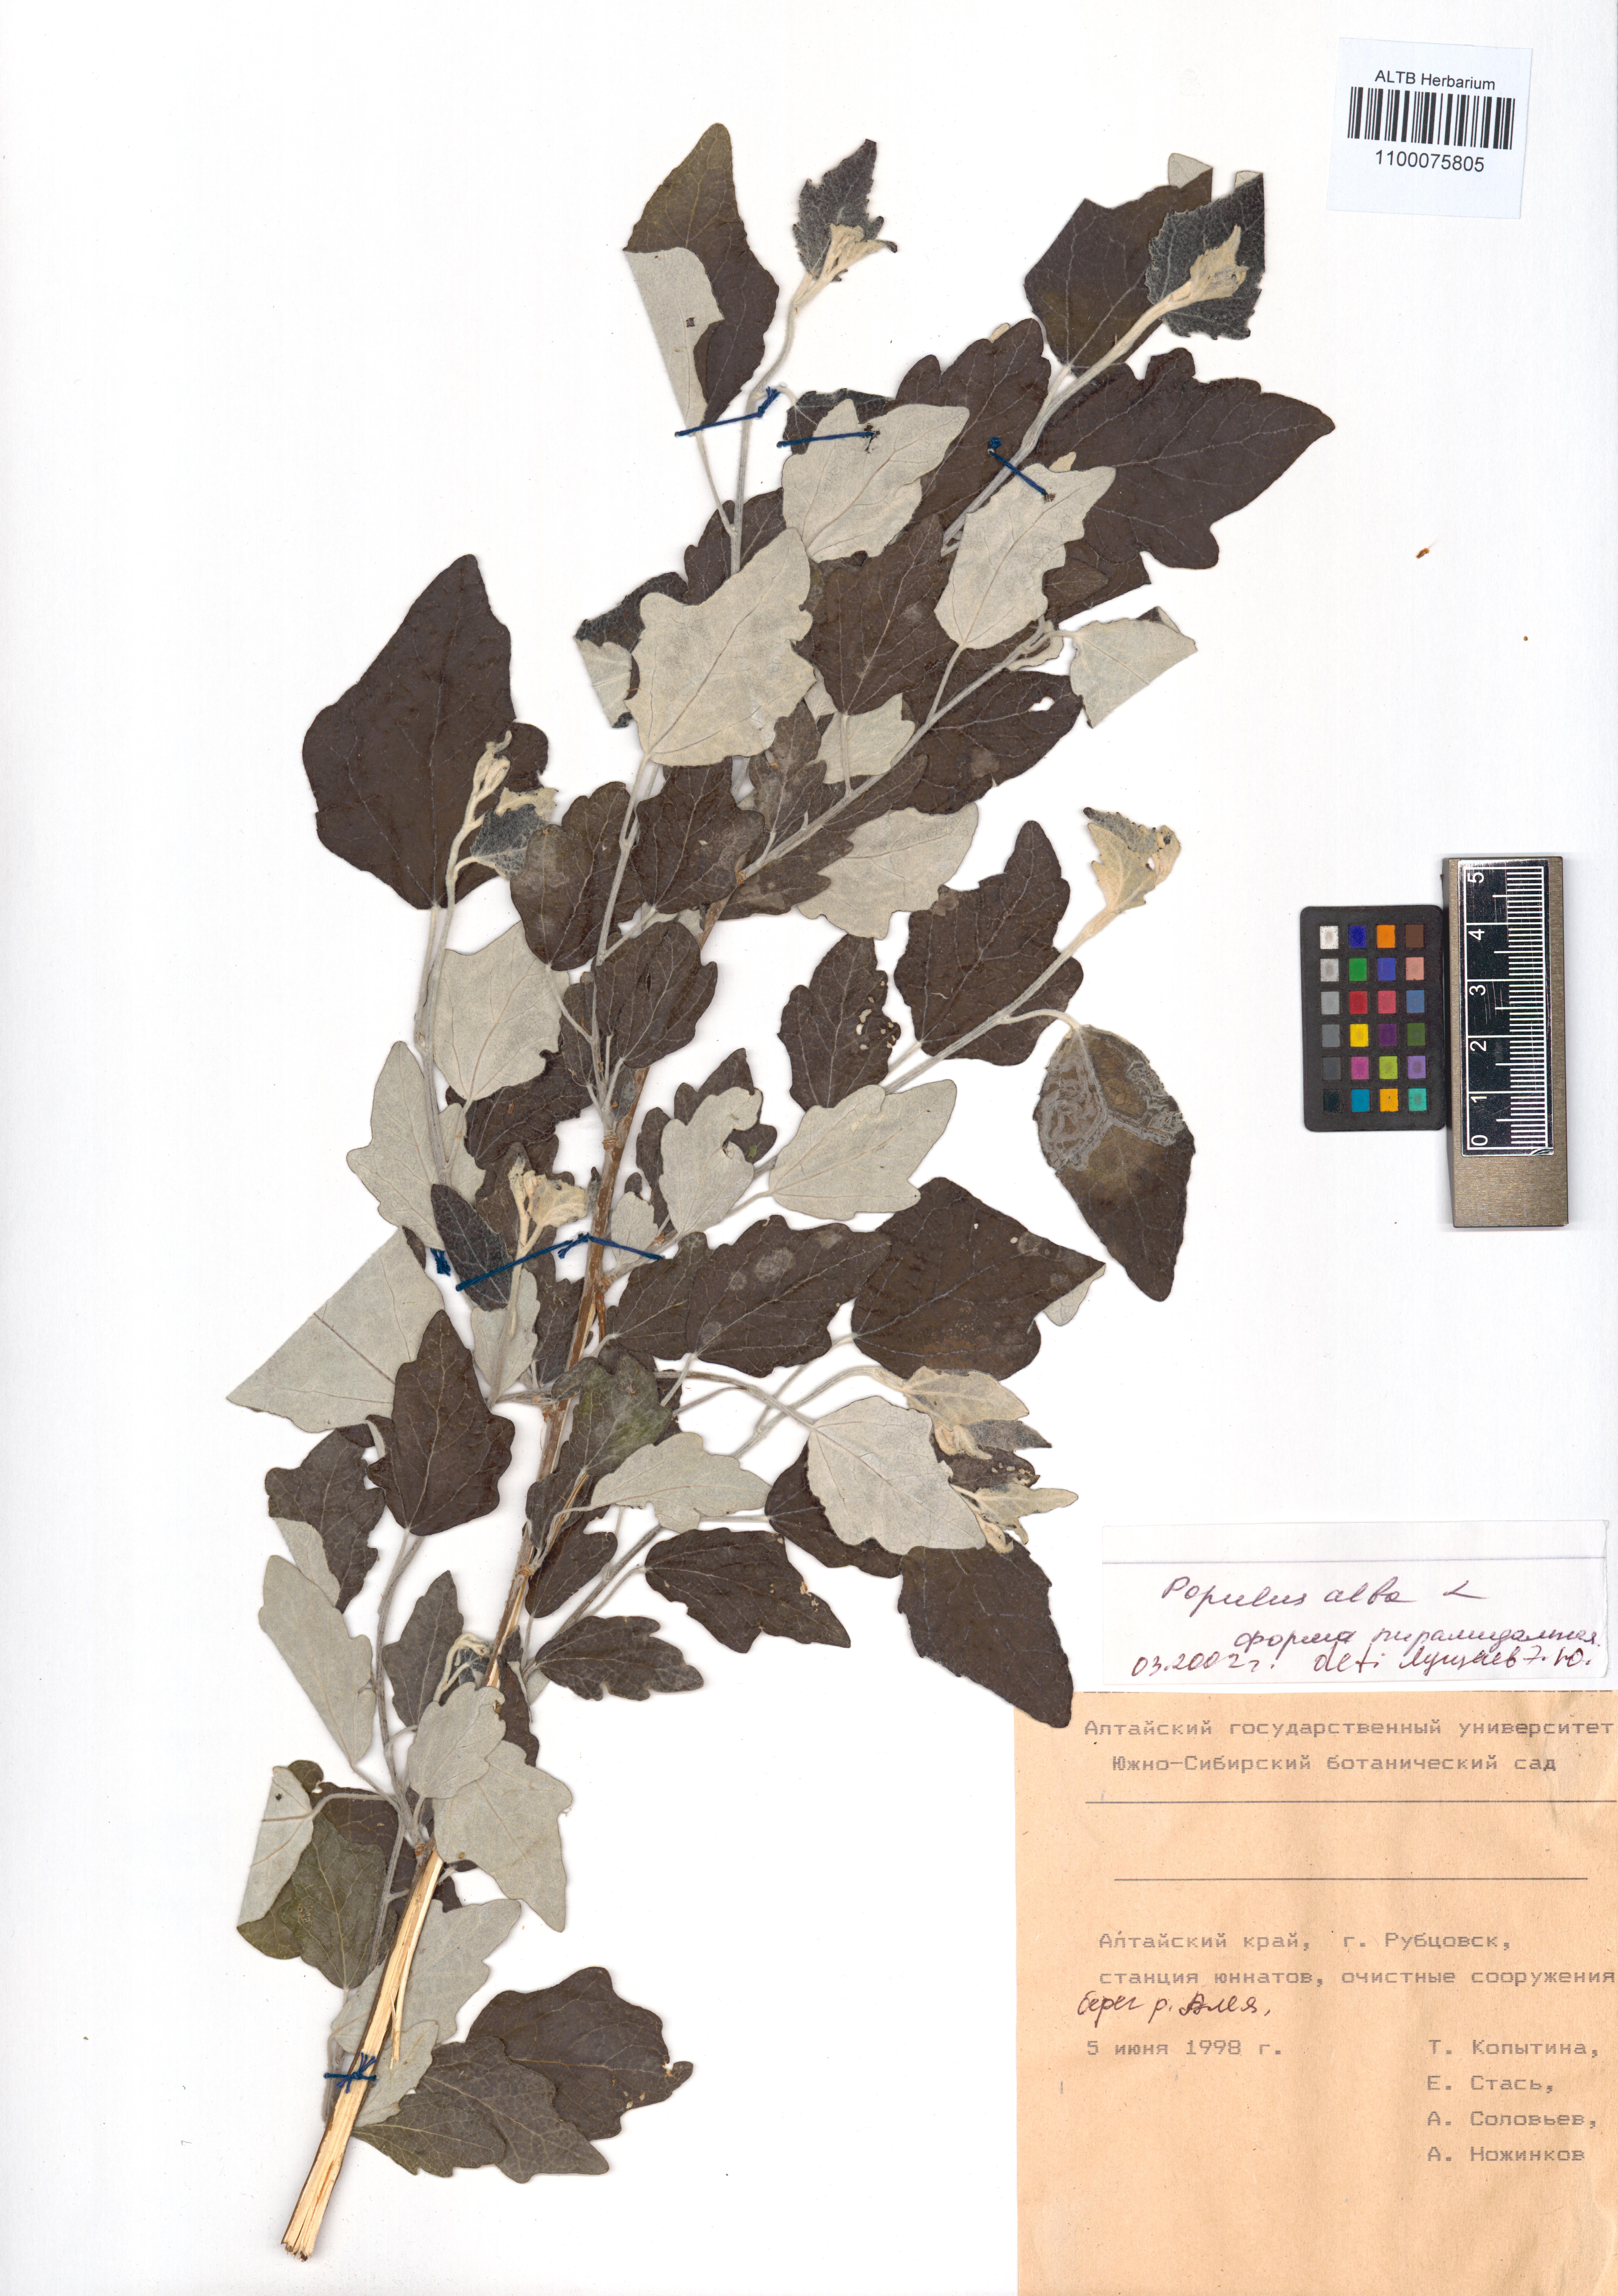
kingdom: Plantae
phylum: Tracheophyta
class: Magnoliopsida
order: Malpighiales
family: Salicaceae
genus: Populus
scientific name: Populus alba
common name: White poplar
